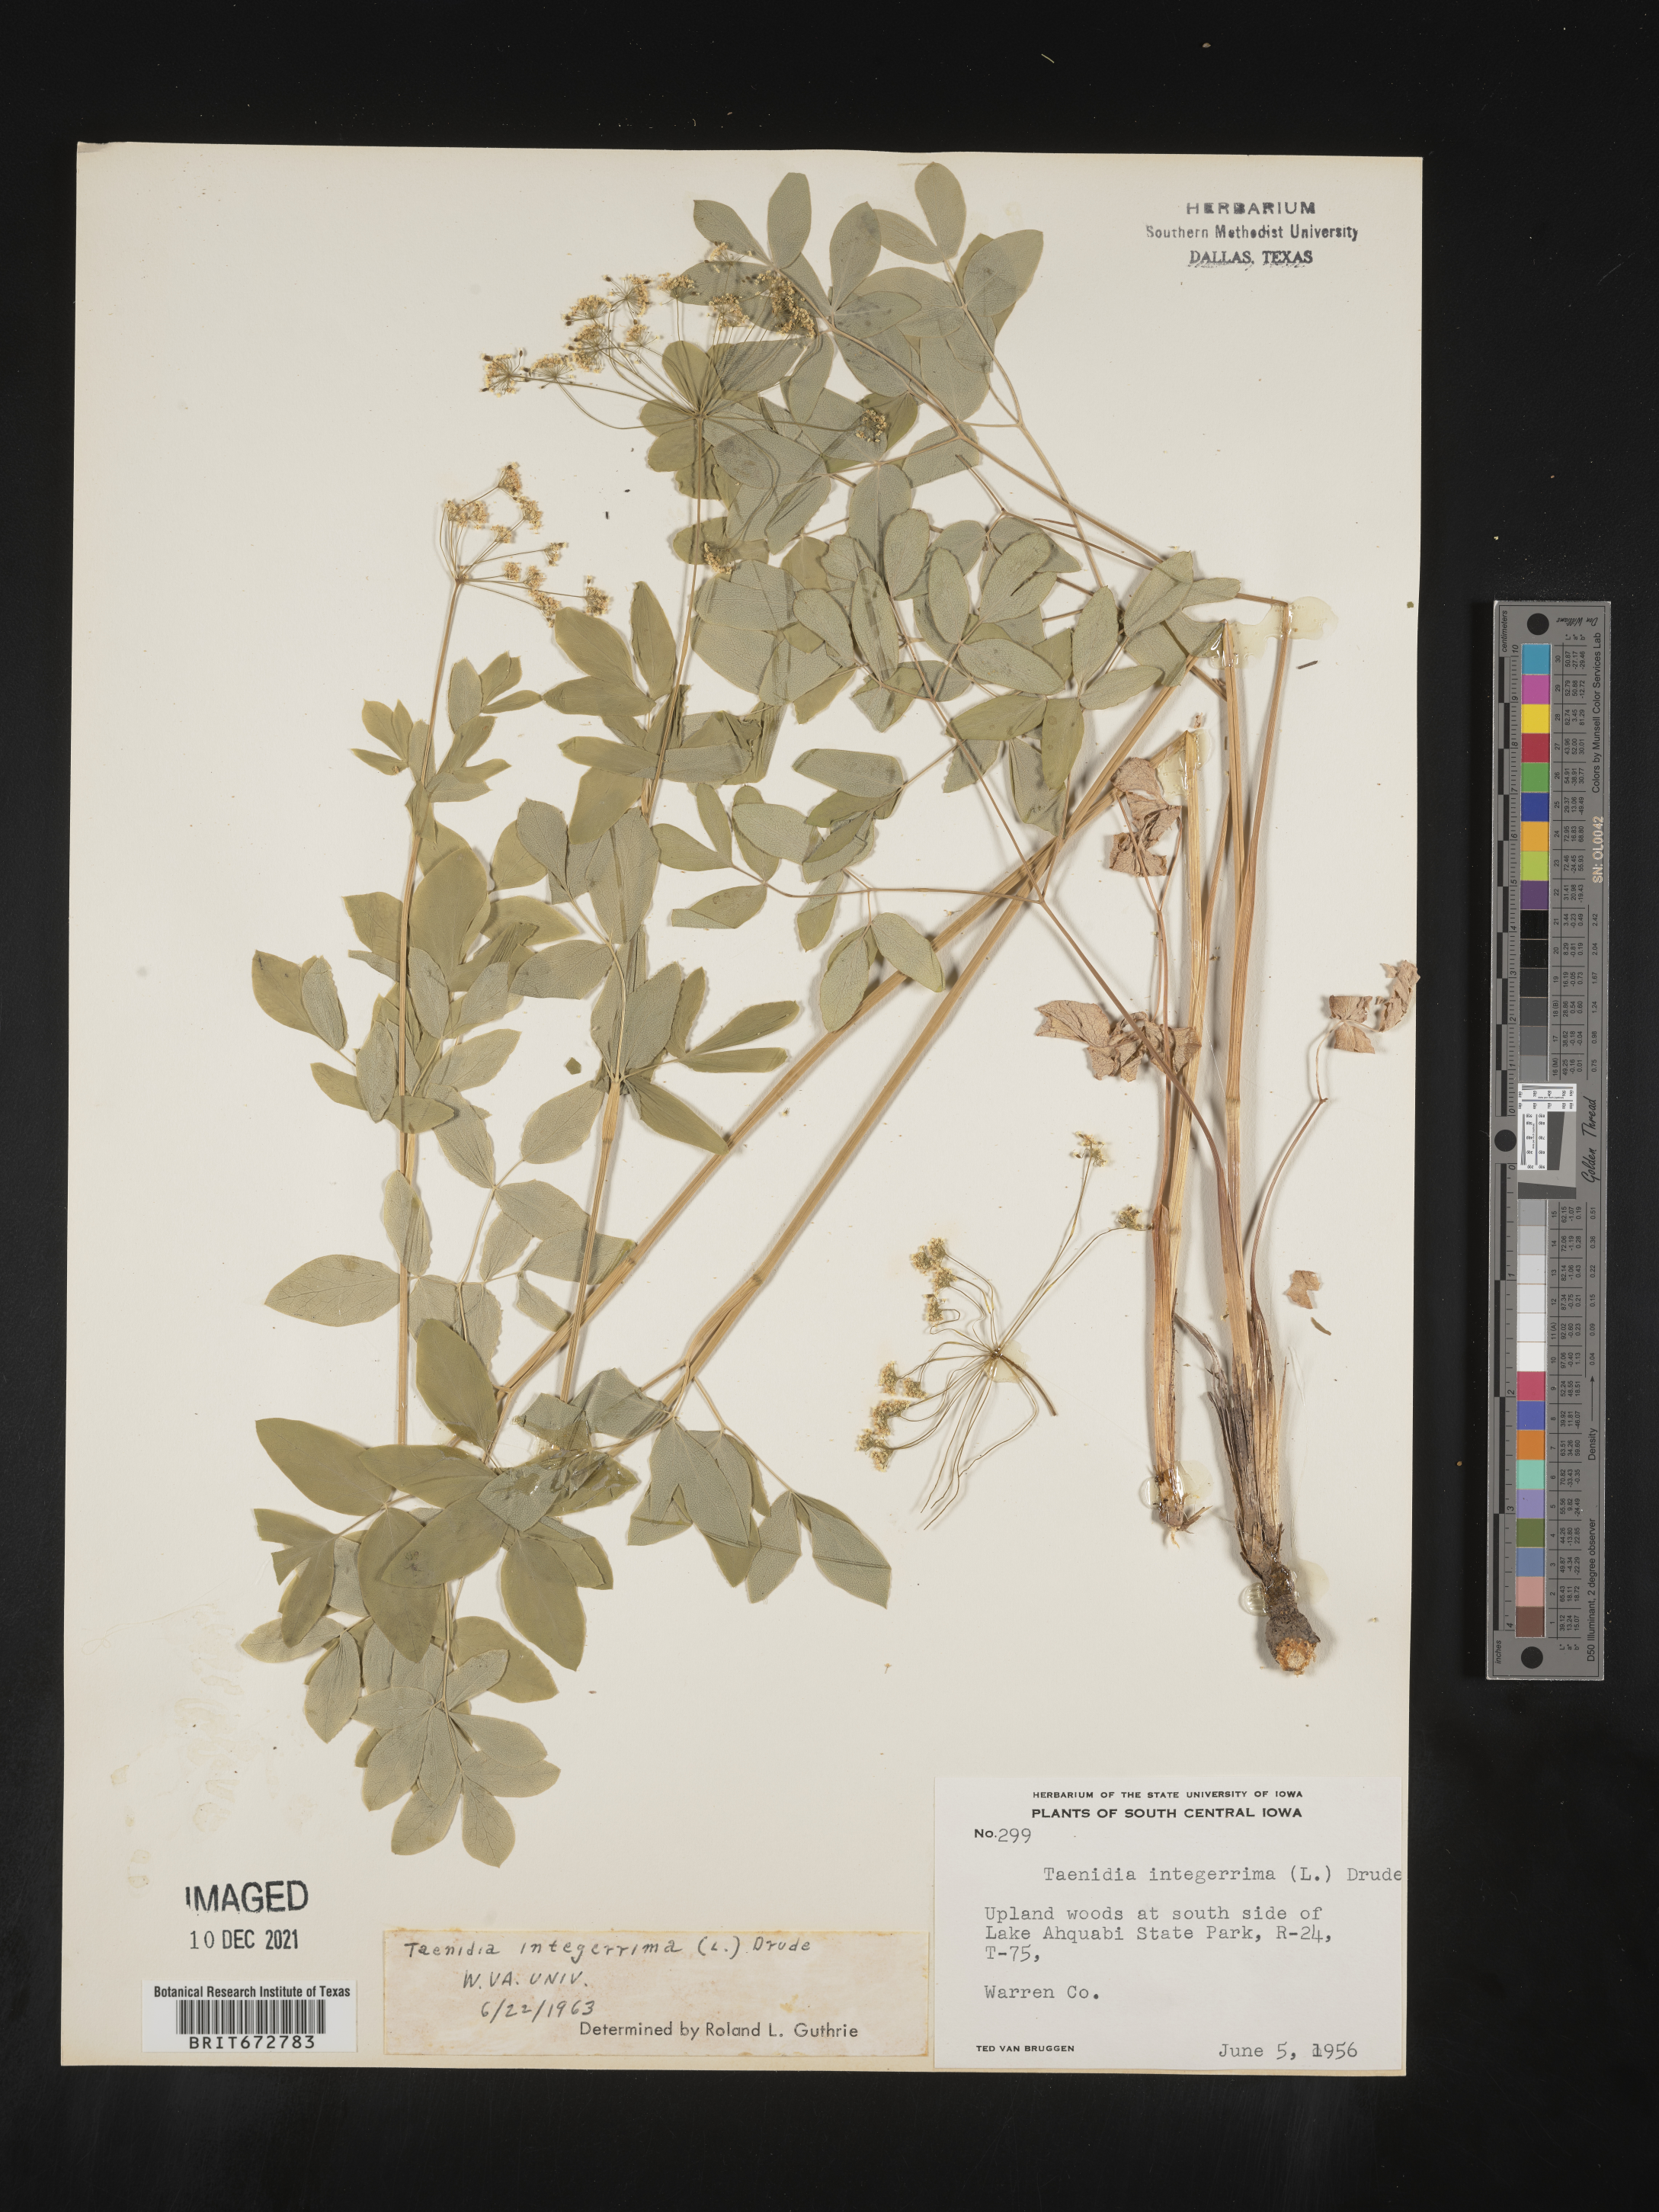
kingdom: Plantae
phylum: Tracheophyta
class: Magnoliopsida
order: Apiales
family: Apiaceae
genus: Taenidia
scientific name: Taenidia integerrima
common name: Golden alexander
